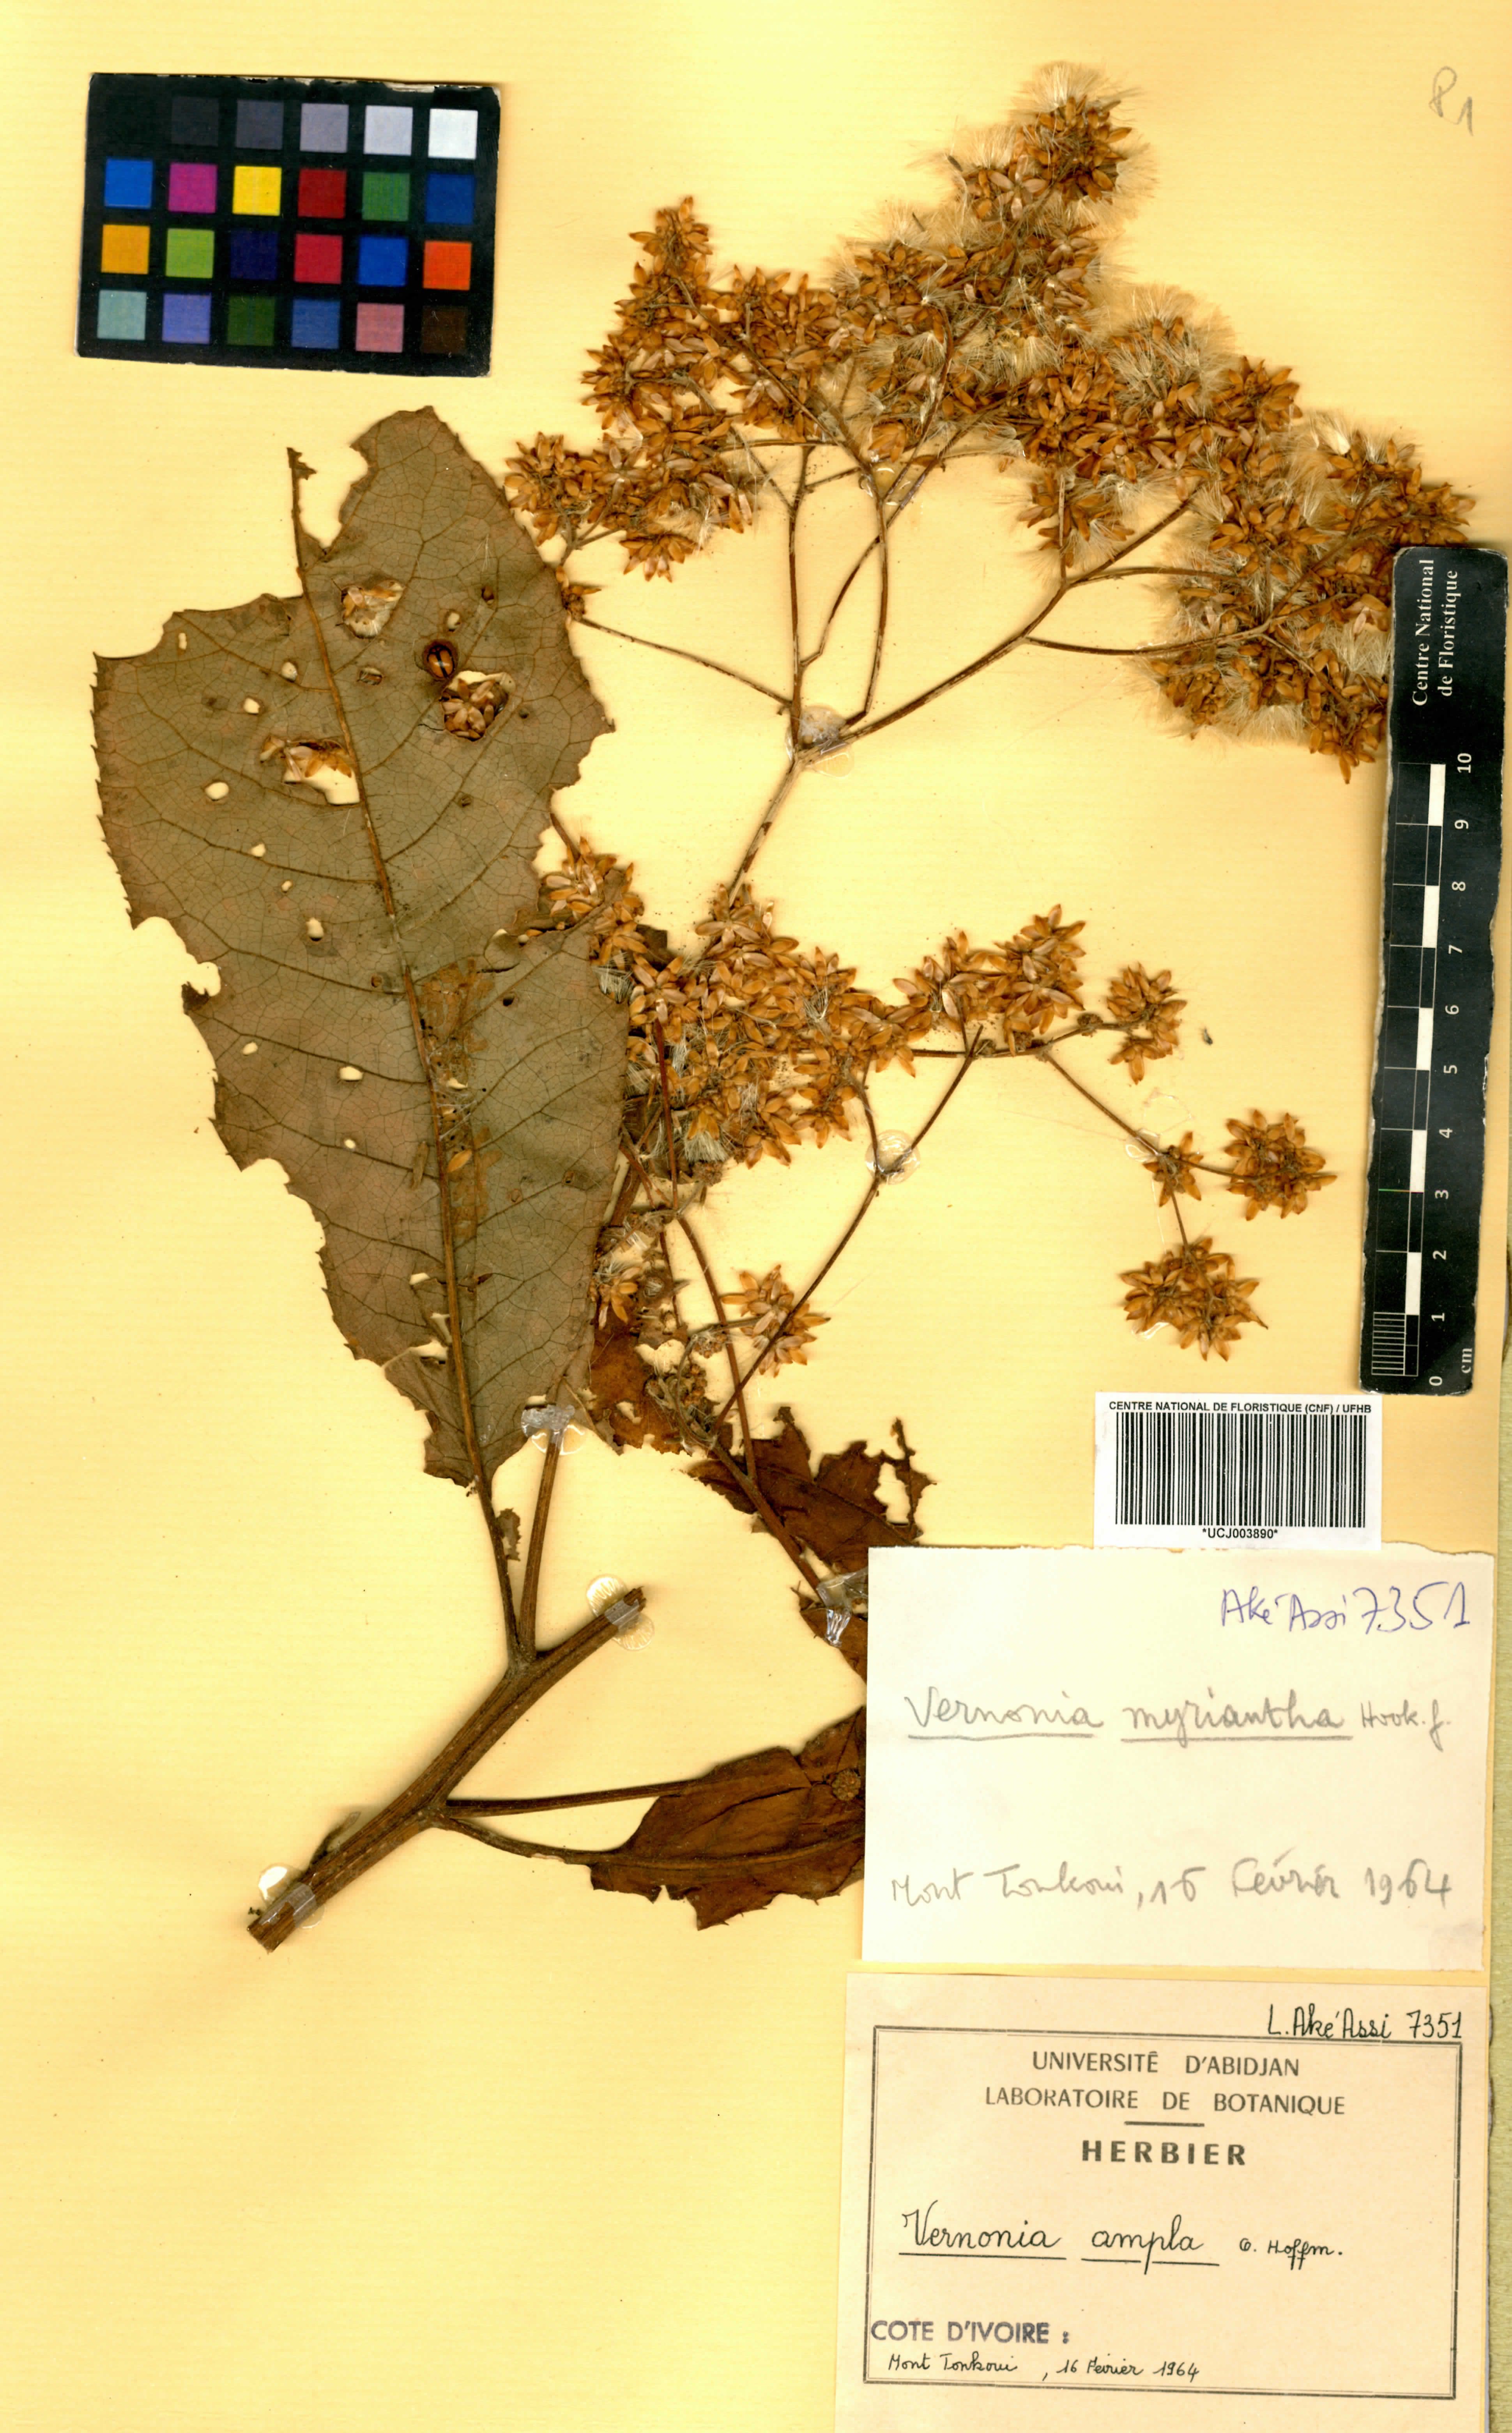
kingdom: Plantae
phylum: Tracheophyta
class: Magnoliopsida
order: Asterales
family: Asteraceae
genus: Gymnanthemum
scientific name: Gymnanthemum myrianthum
